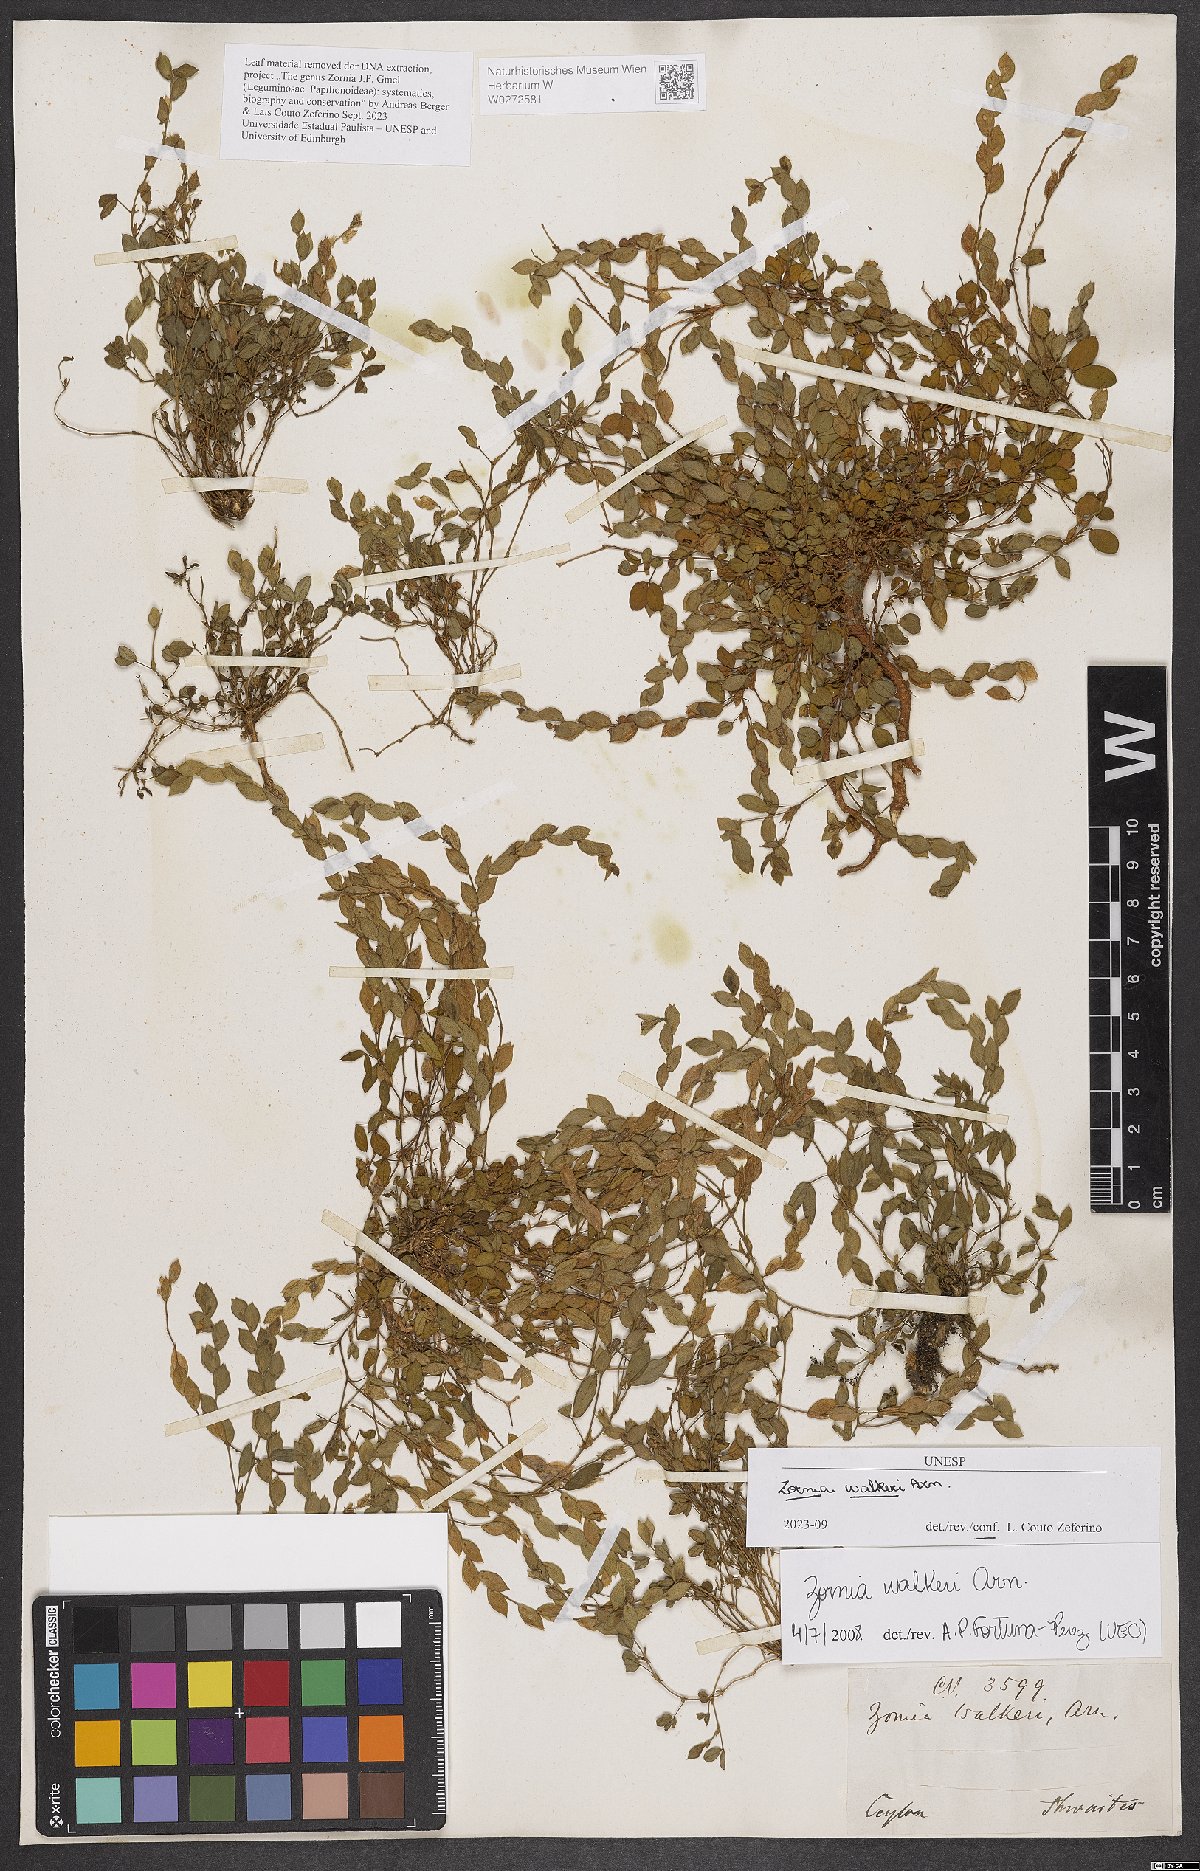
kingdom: Plantae
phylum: Tracheophyta
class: Magnoliopsida
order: Fabales
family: Fabaceae
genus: Zornia
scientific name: Zornia walkeri
